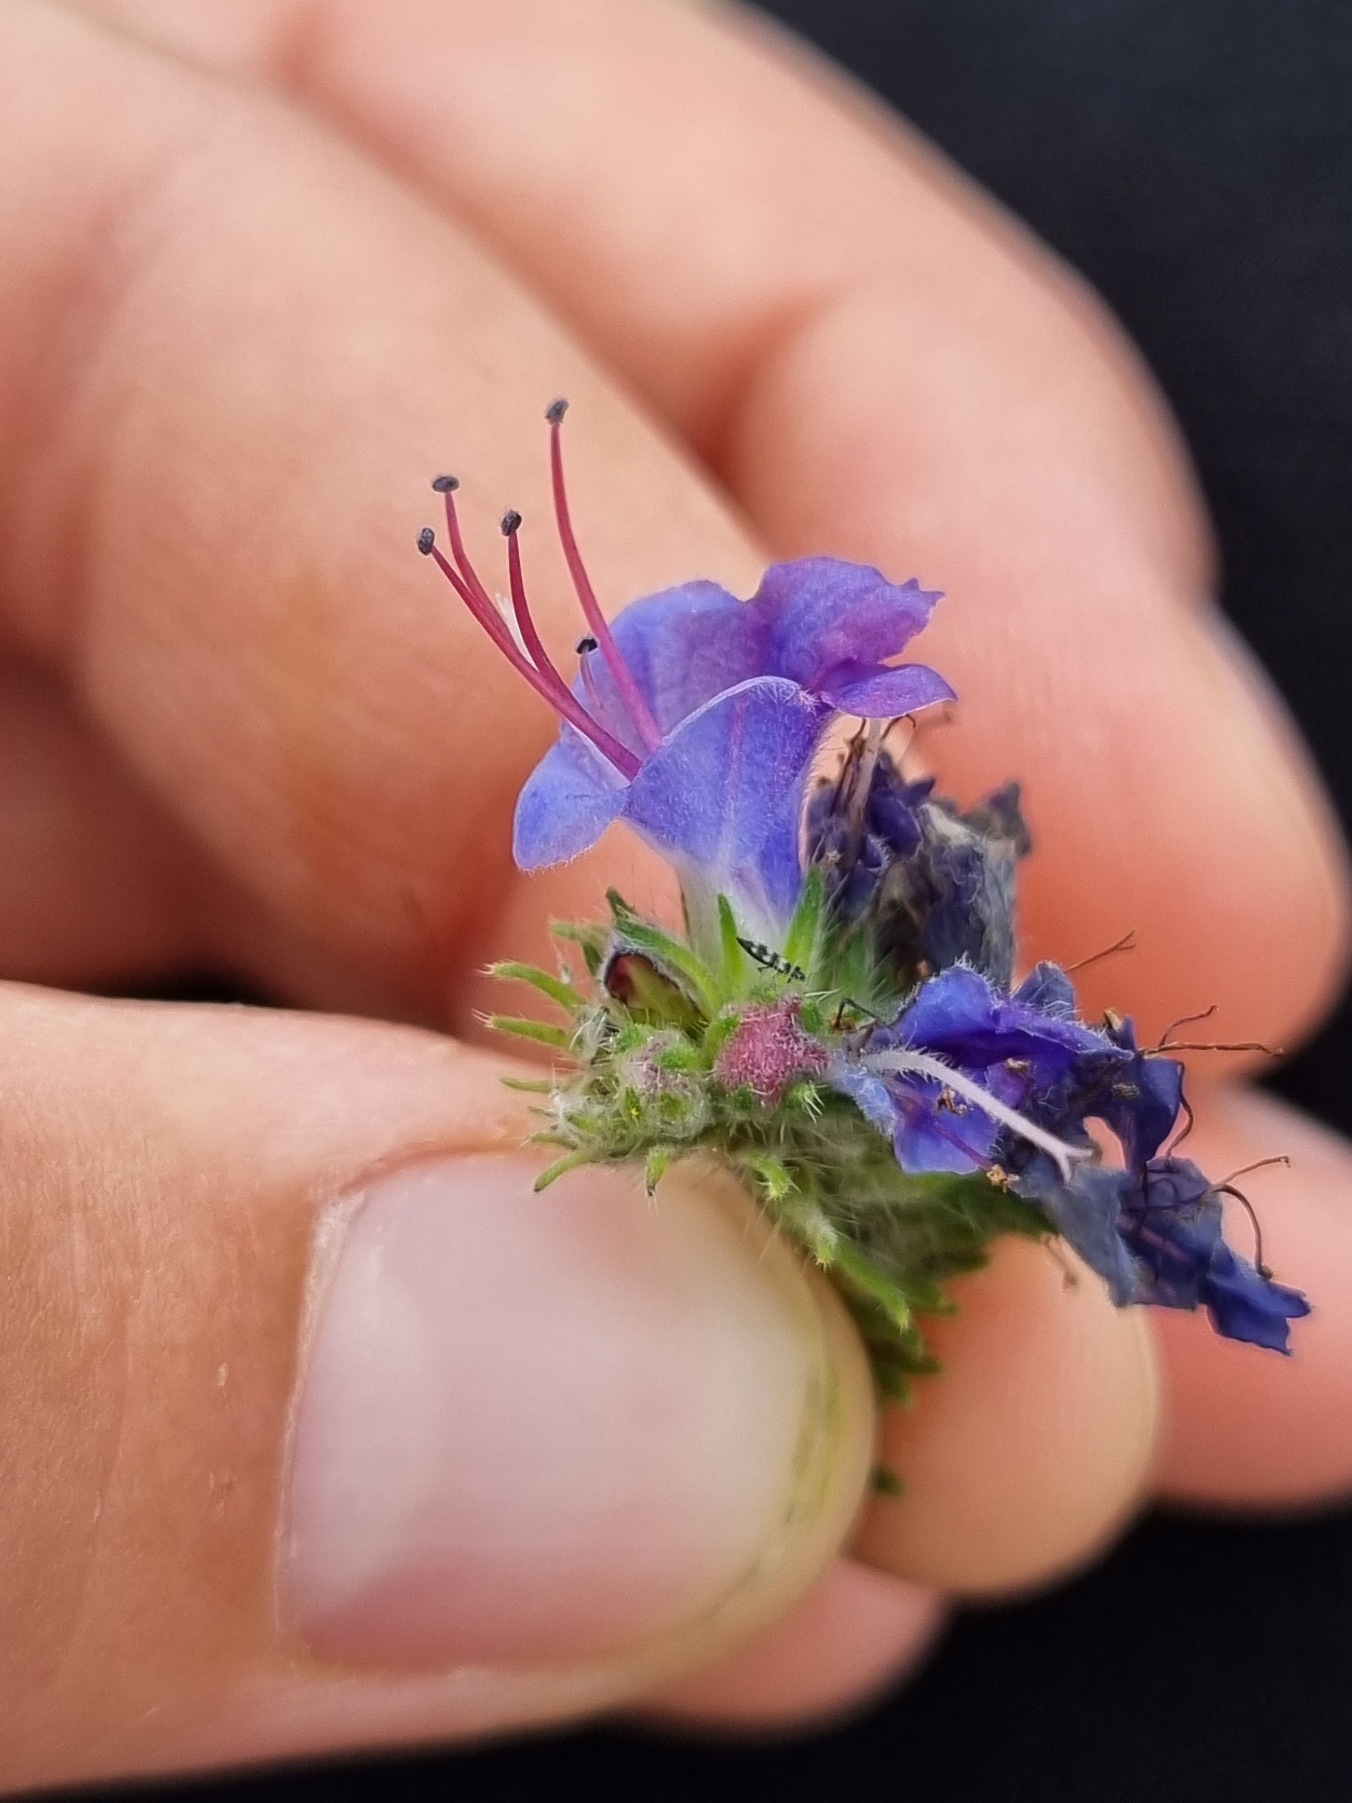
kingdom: Plantae
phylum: Tracheophyta
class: Magnoliopsida
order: Boraginales
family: Boraginaceae
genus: Echium
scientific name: Echium vulgare
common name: Slangehoved
